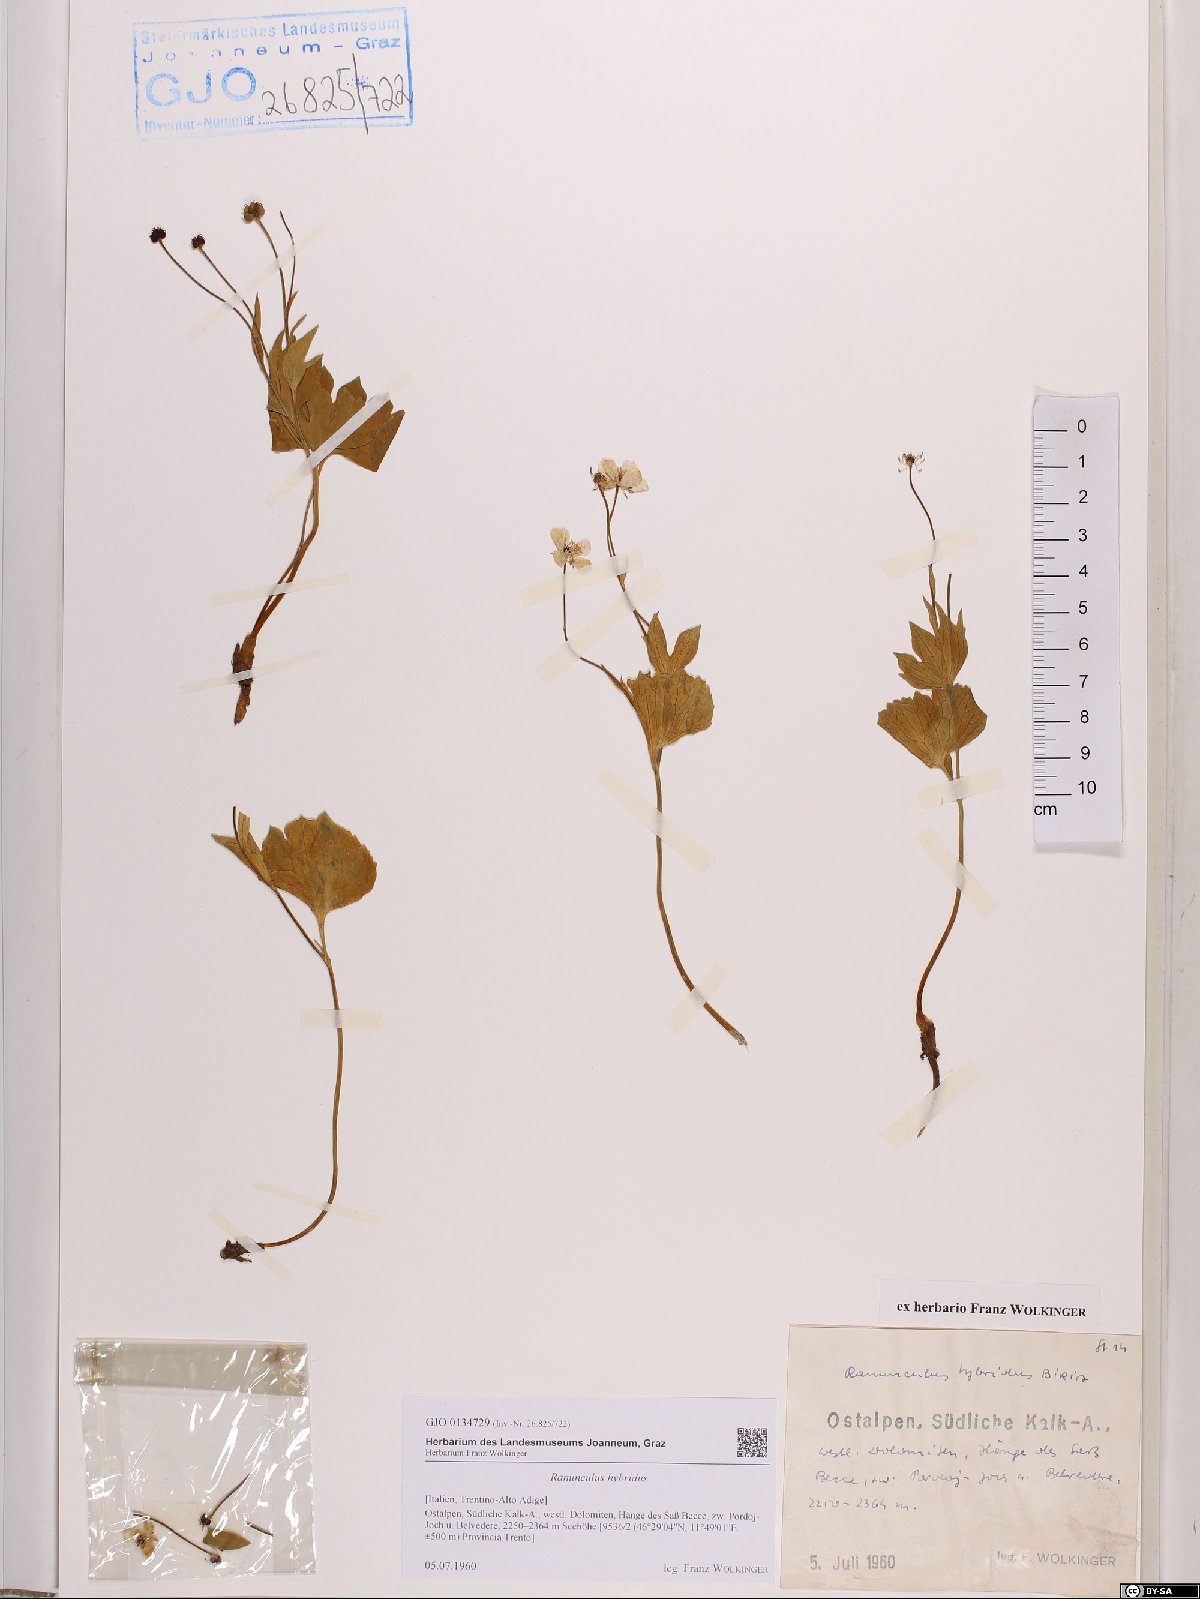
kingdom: Plantae
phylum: Tracheophyta
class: Magnoliopsida
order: Ranunculales
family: Ranunculaceae
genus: Ranunculus
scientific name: Ranunculus hybridus
